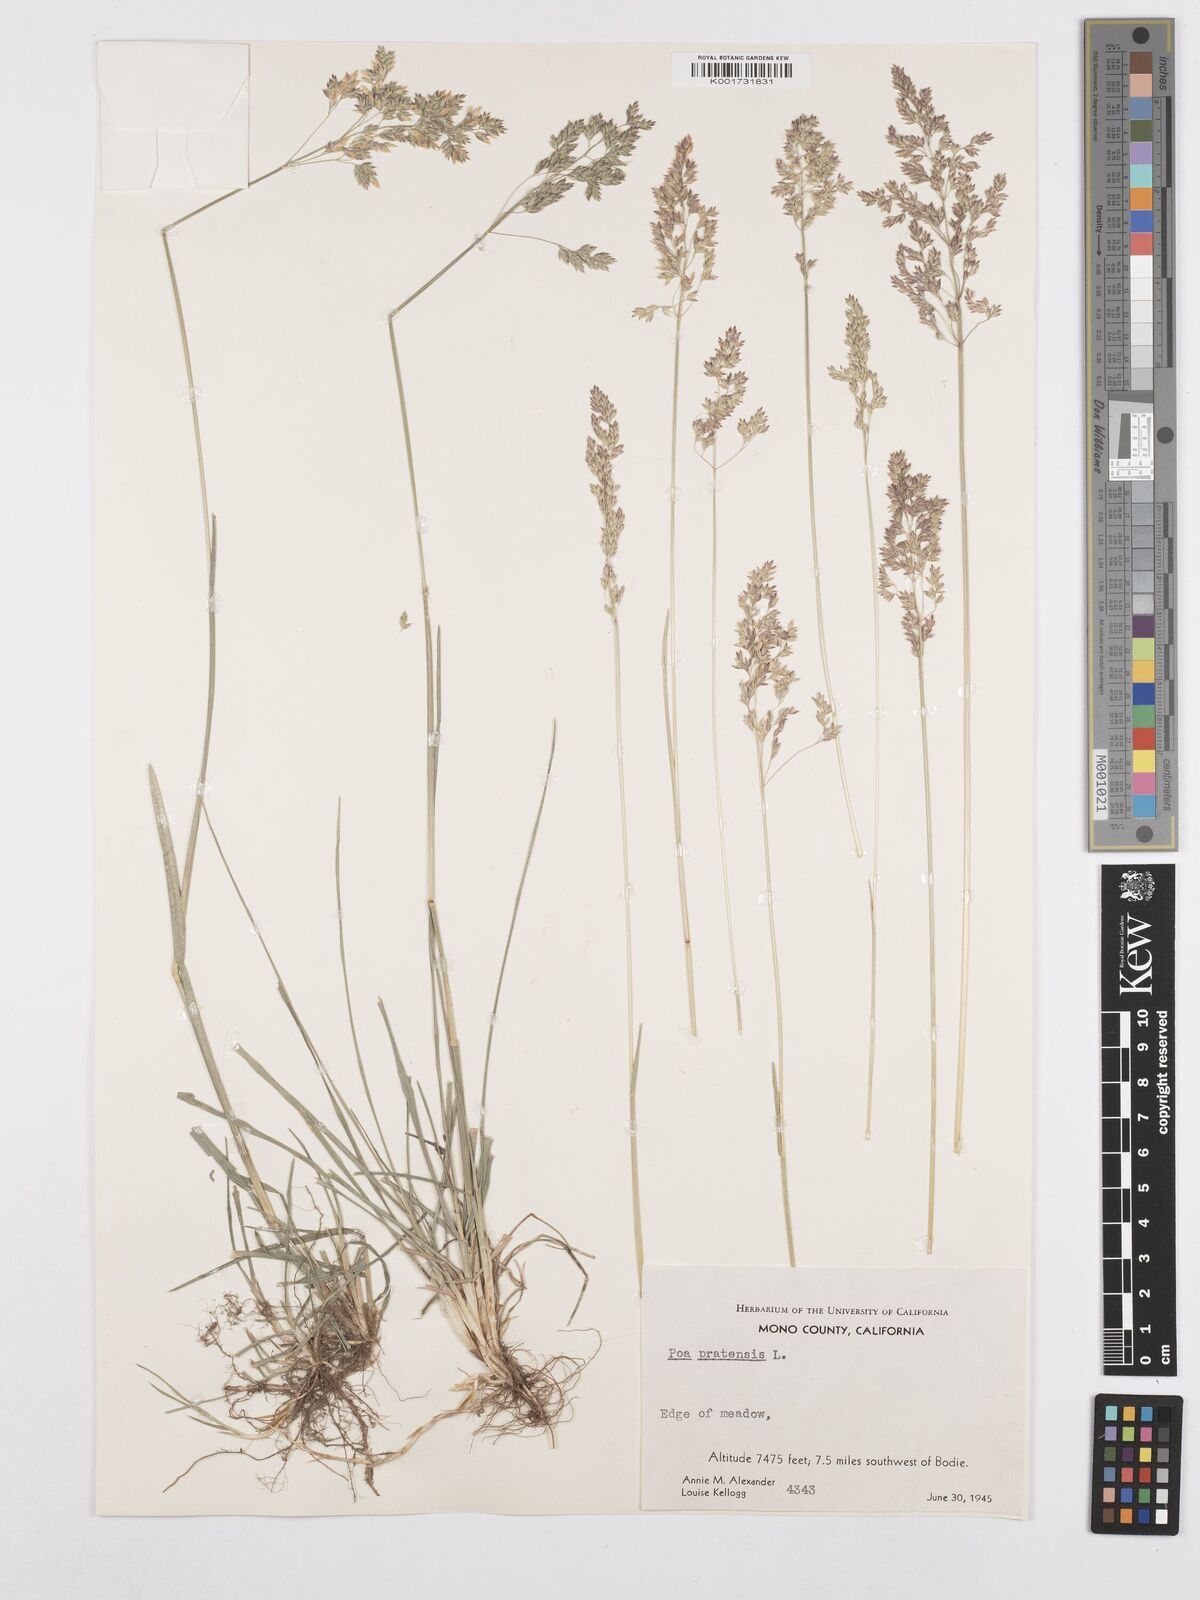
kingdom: Plantae
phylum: Tracheophyta
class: Liliopsida
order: Poales
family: Poaceae
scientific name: Poaceae
